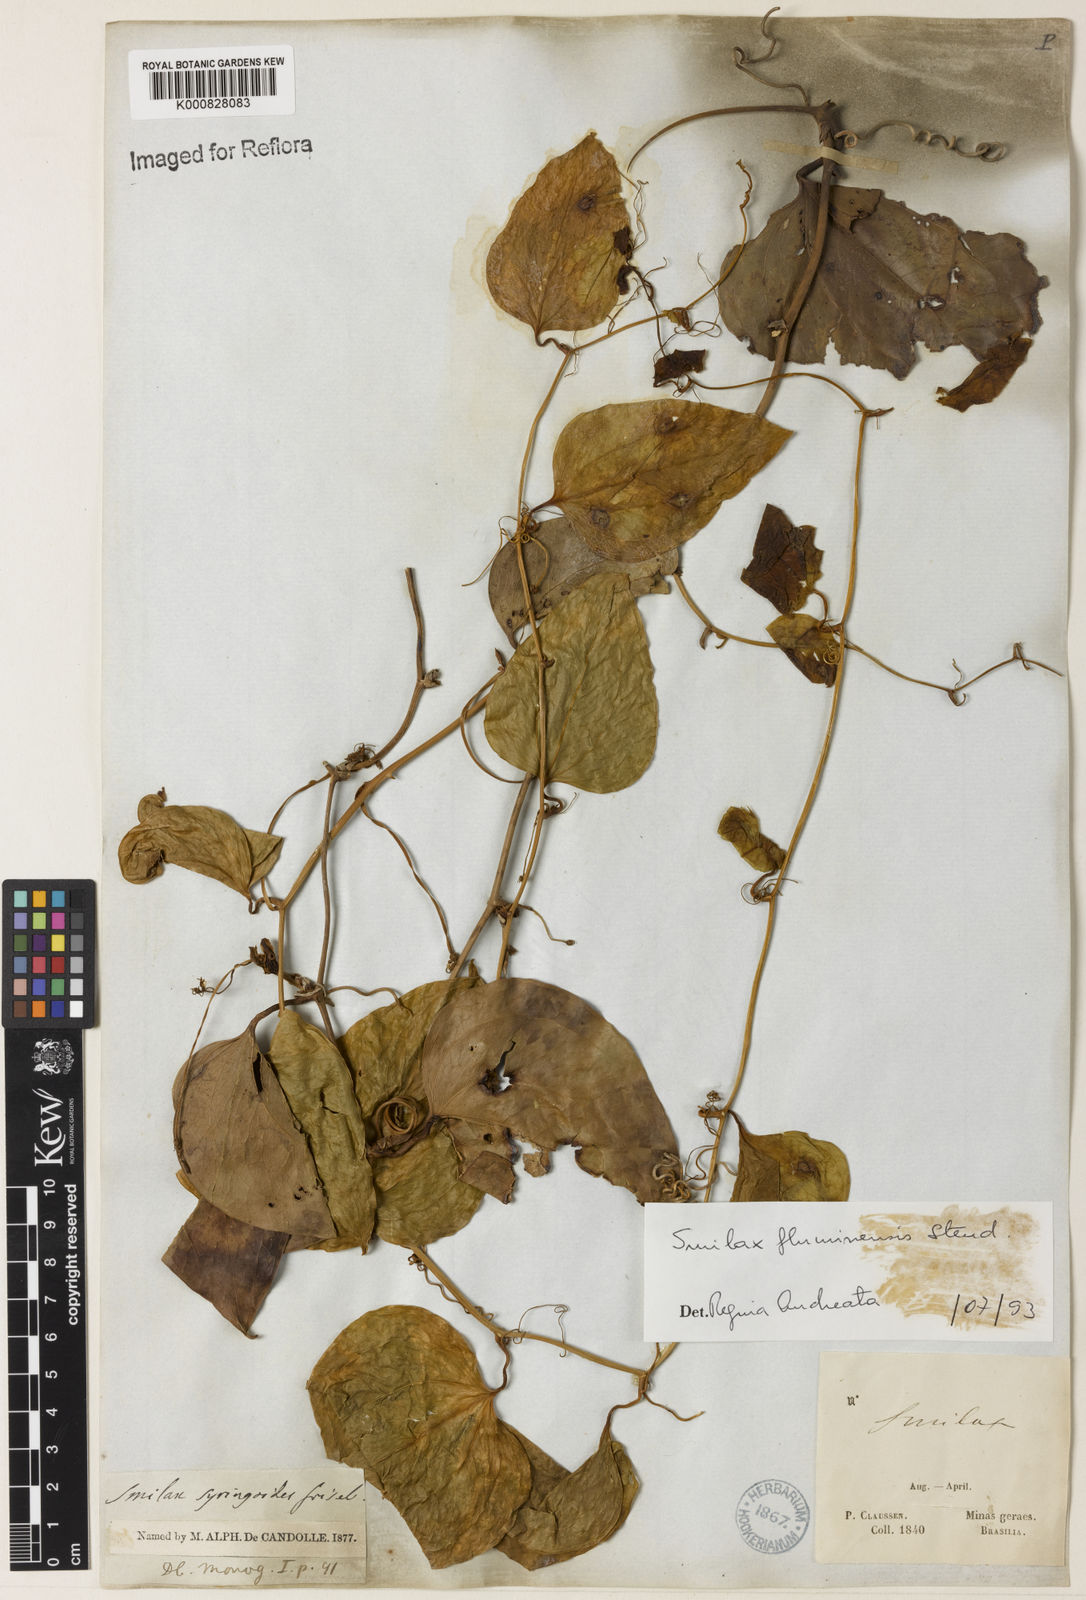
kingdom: Plantae
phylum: Tracheophyta
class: Liliopsida
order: Liliales
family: Smilacaceae
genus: Smilax
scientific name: Smilax fluminensis
